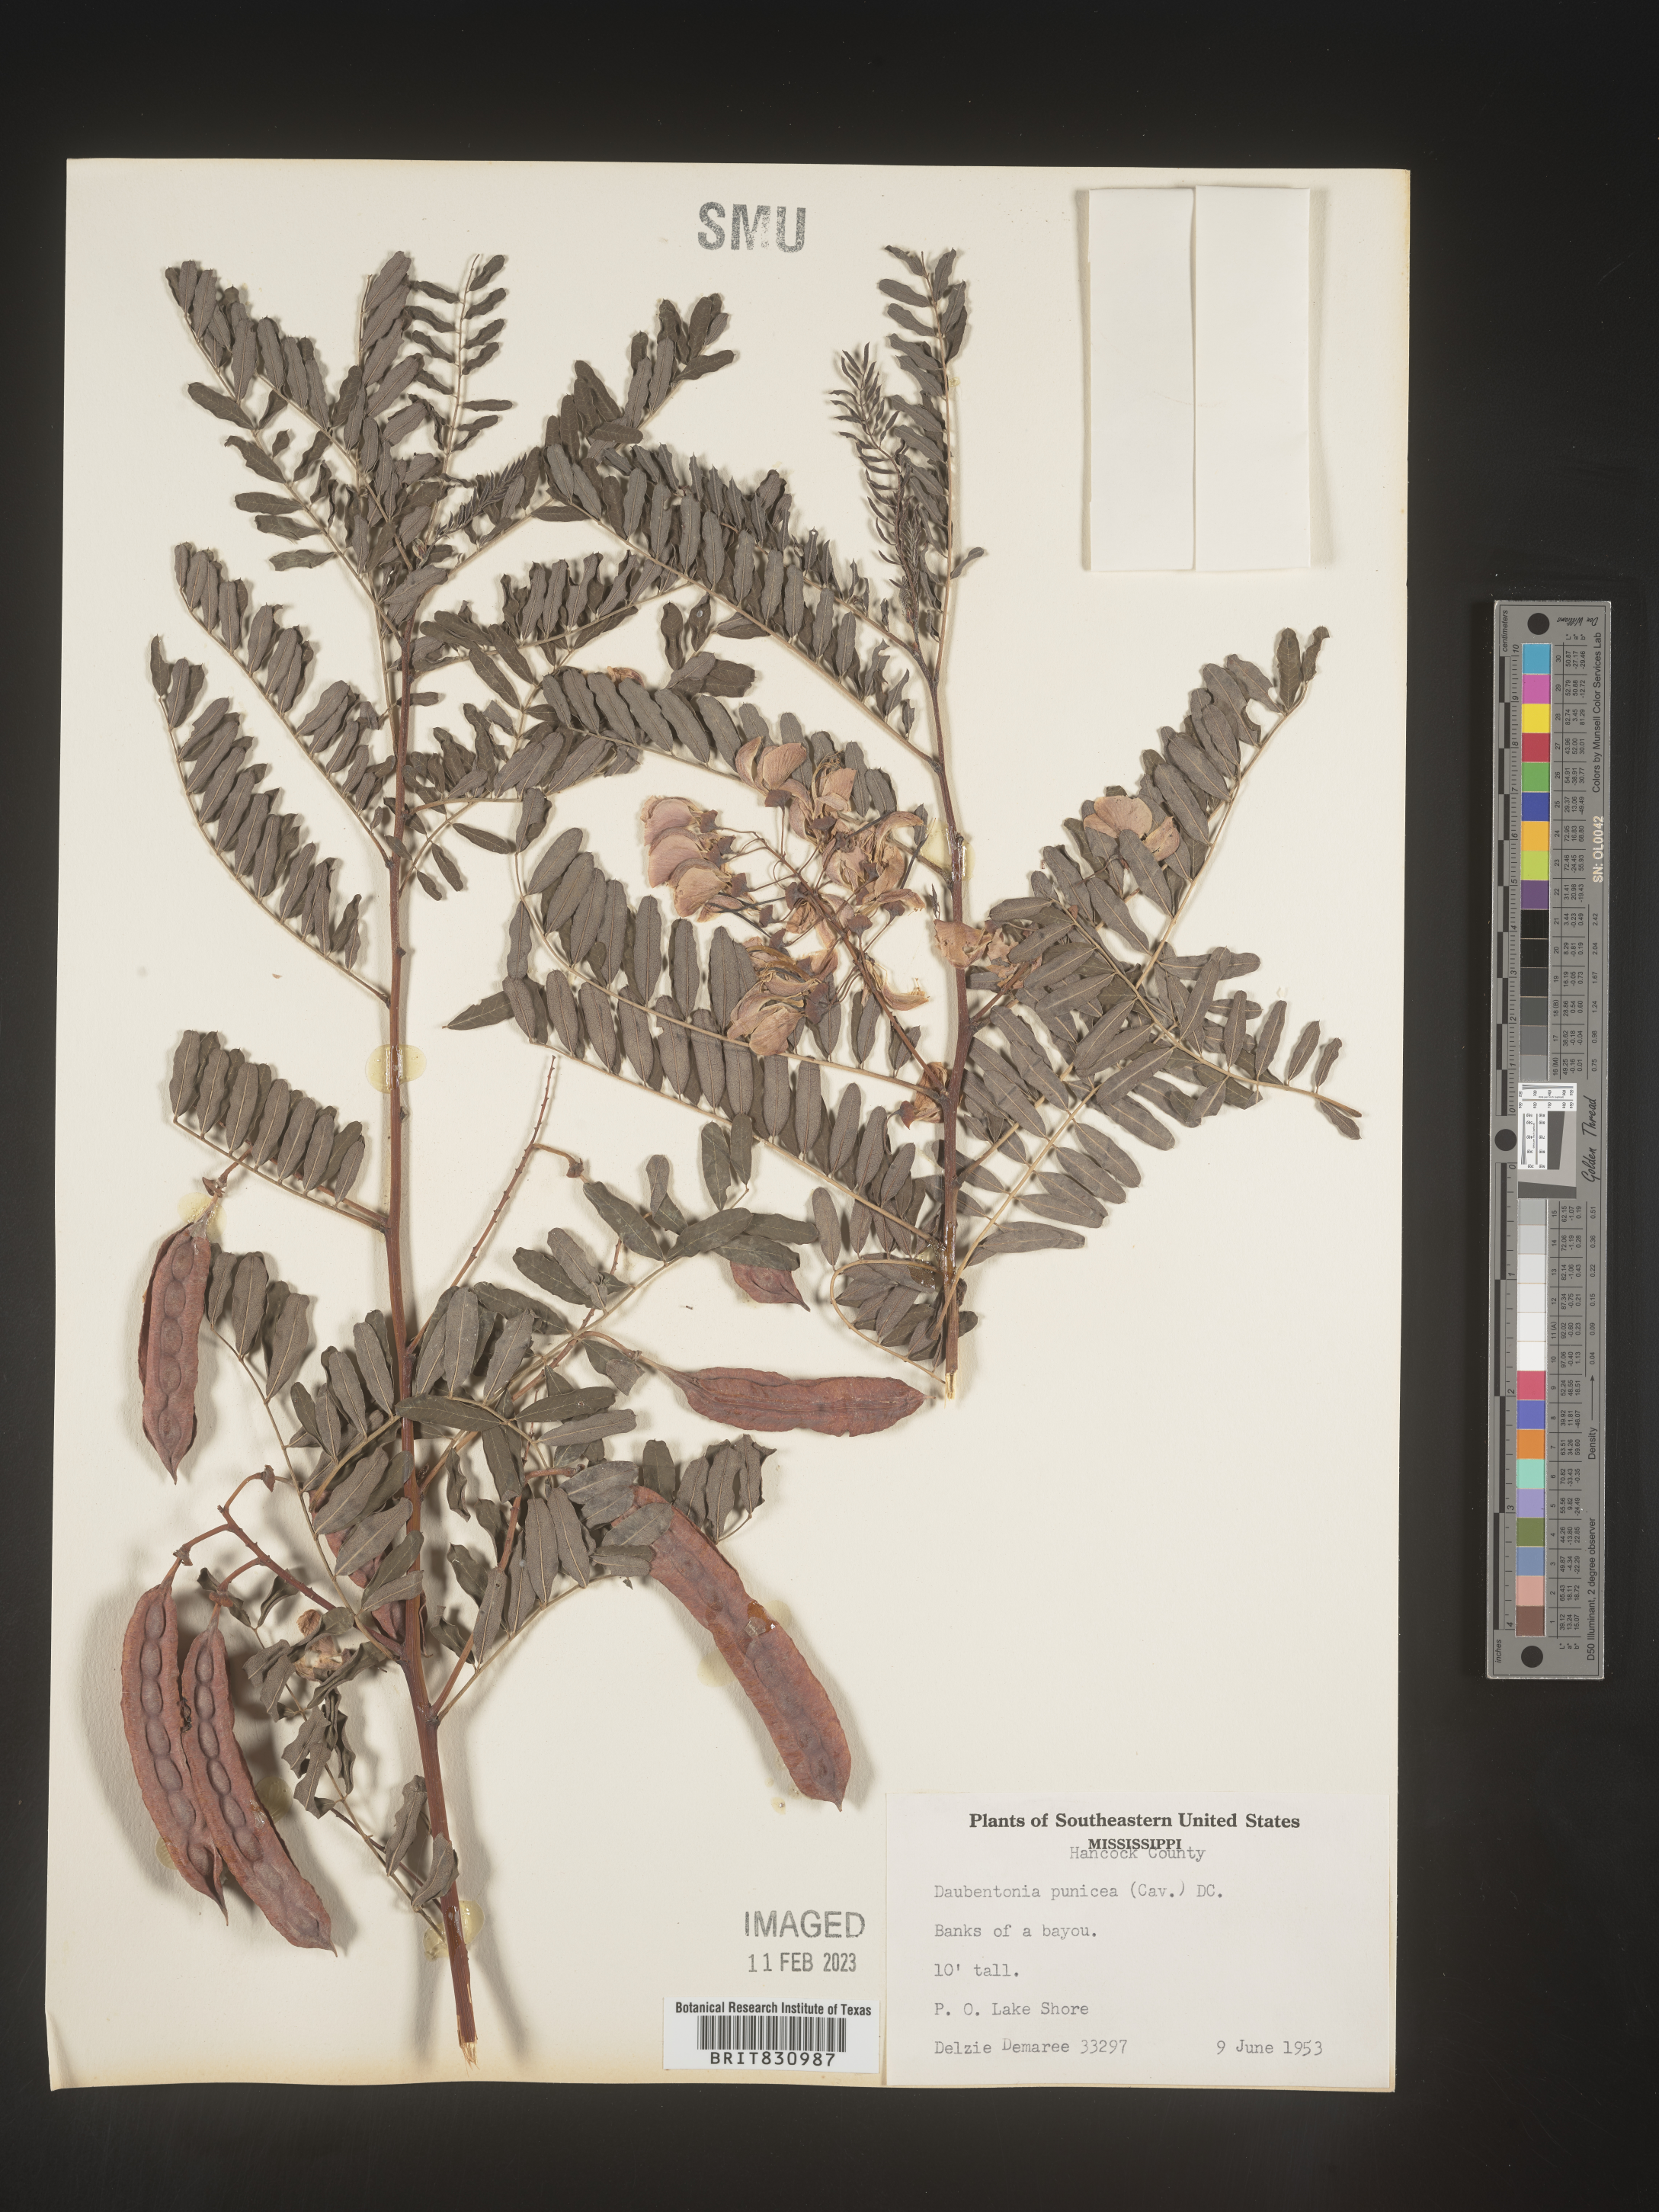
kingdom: Plantae
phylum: Tracheophyta
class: Magnoliopsida
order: Fabales
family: Fabaceae
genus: Sesbania
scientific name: Sesbania punicea
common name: Rattlebox
